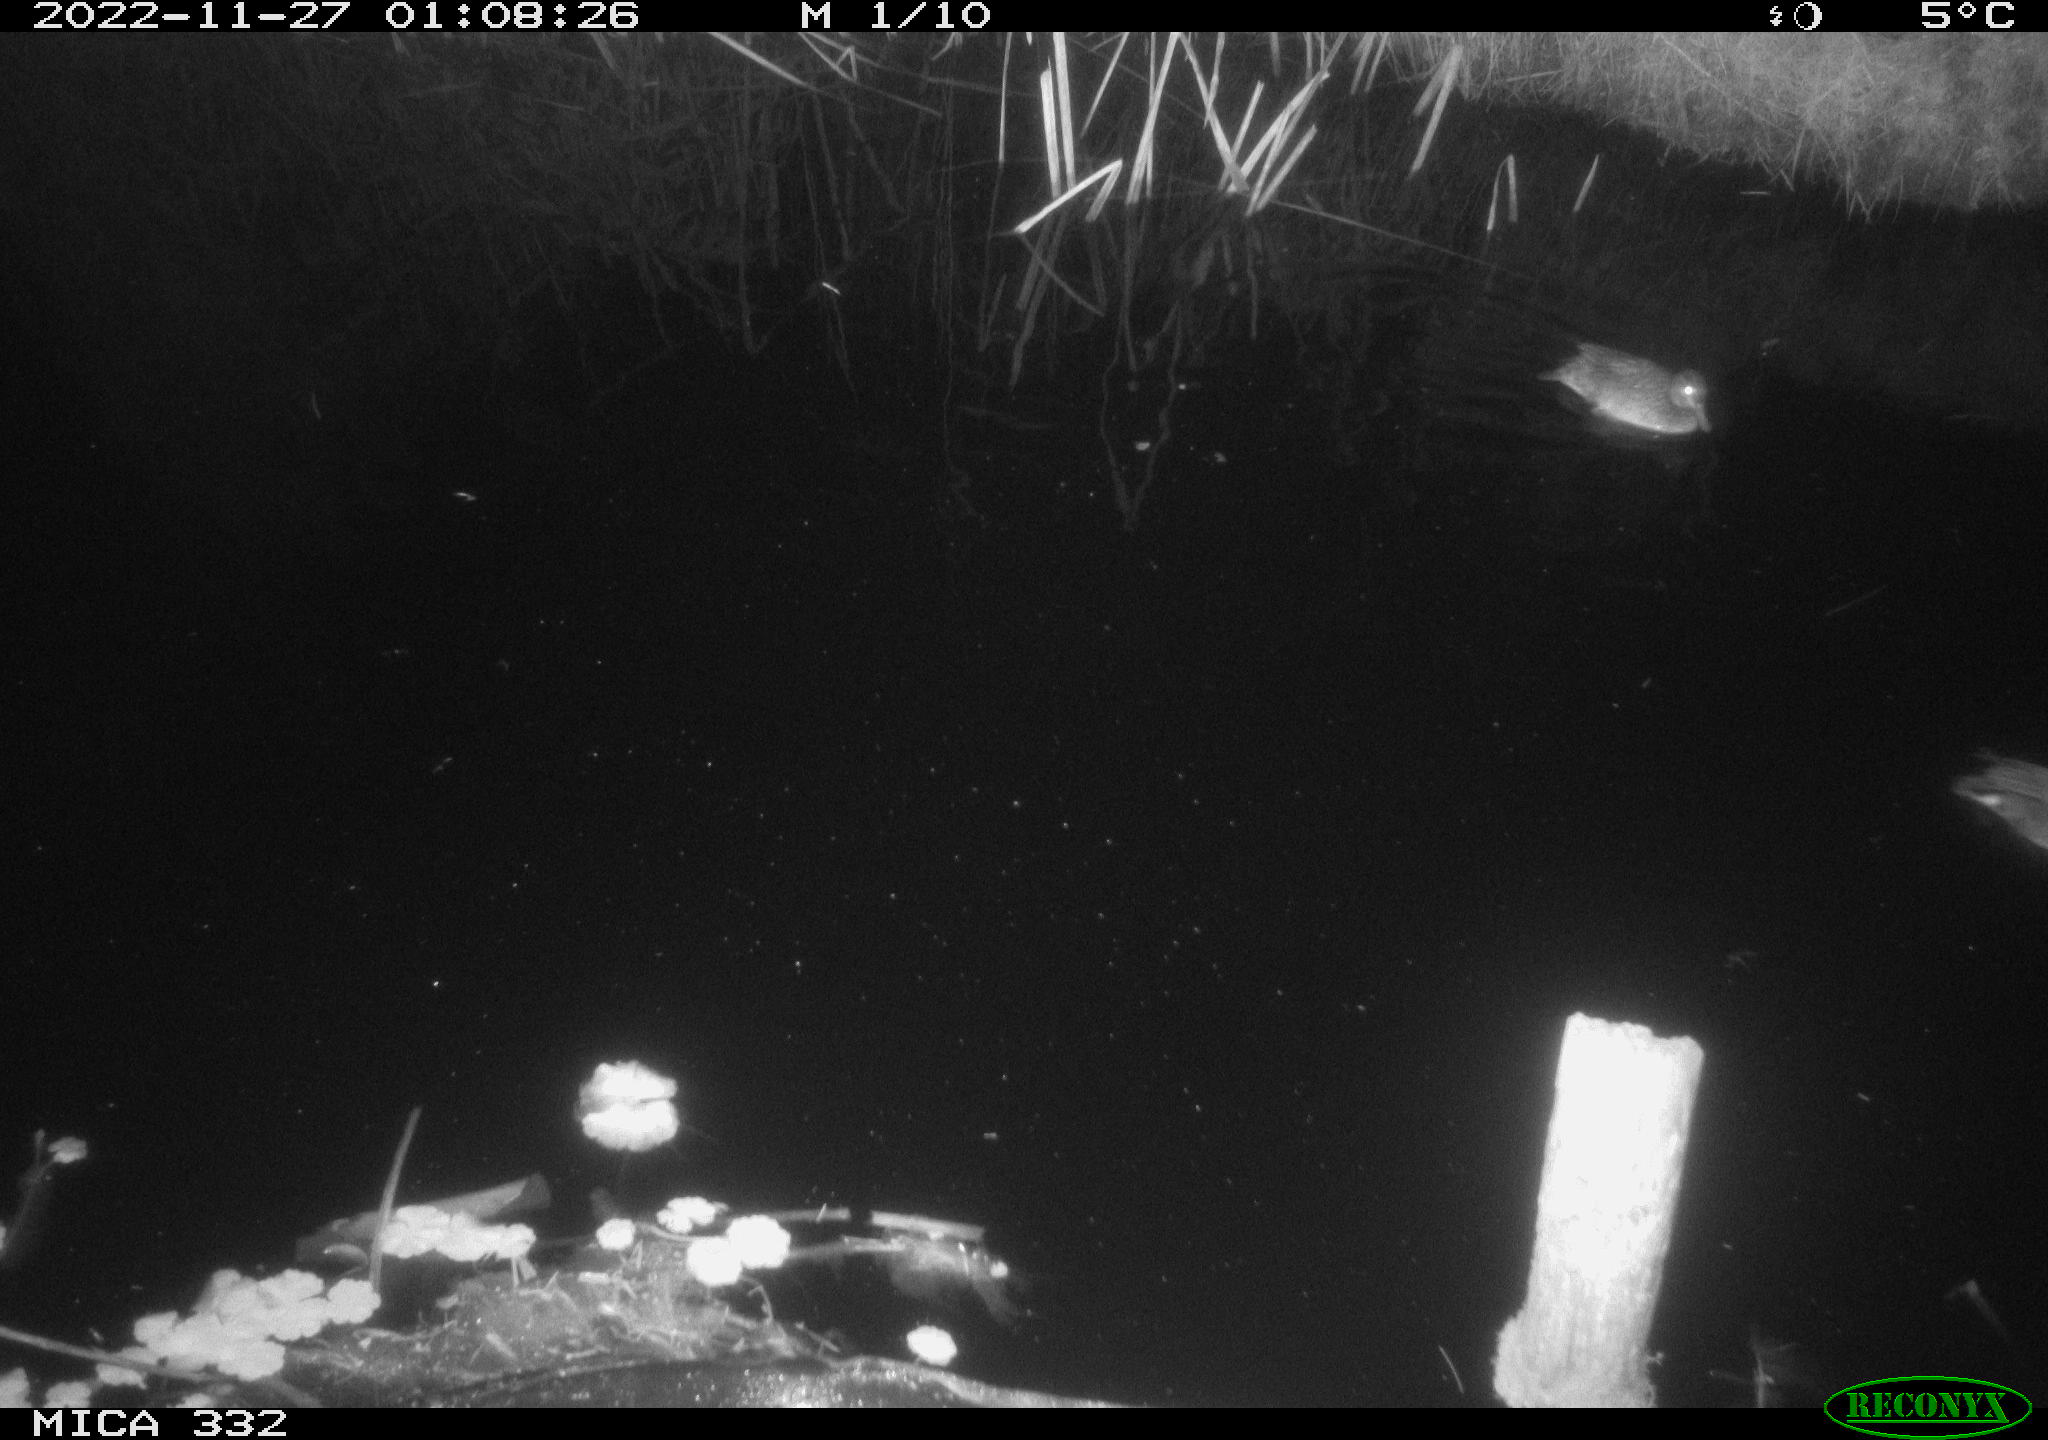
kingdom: Animalia
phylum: Chordata
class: Aves
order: Anseriformes
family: Anatidae
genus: Mareca
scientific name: Mareca strepera
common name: Gadwall
